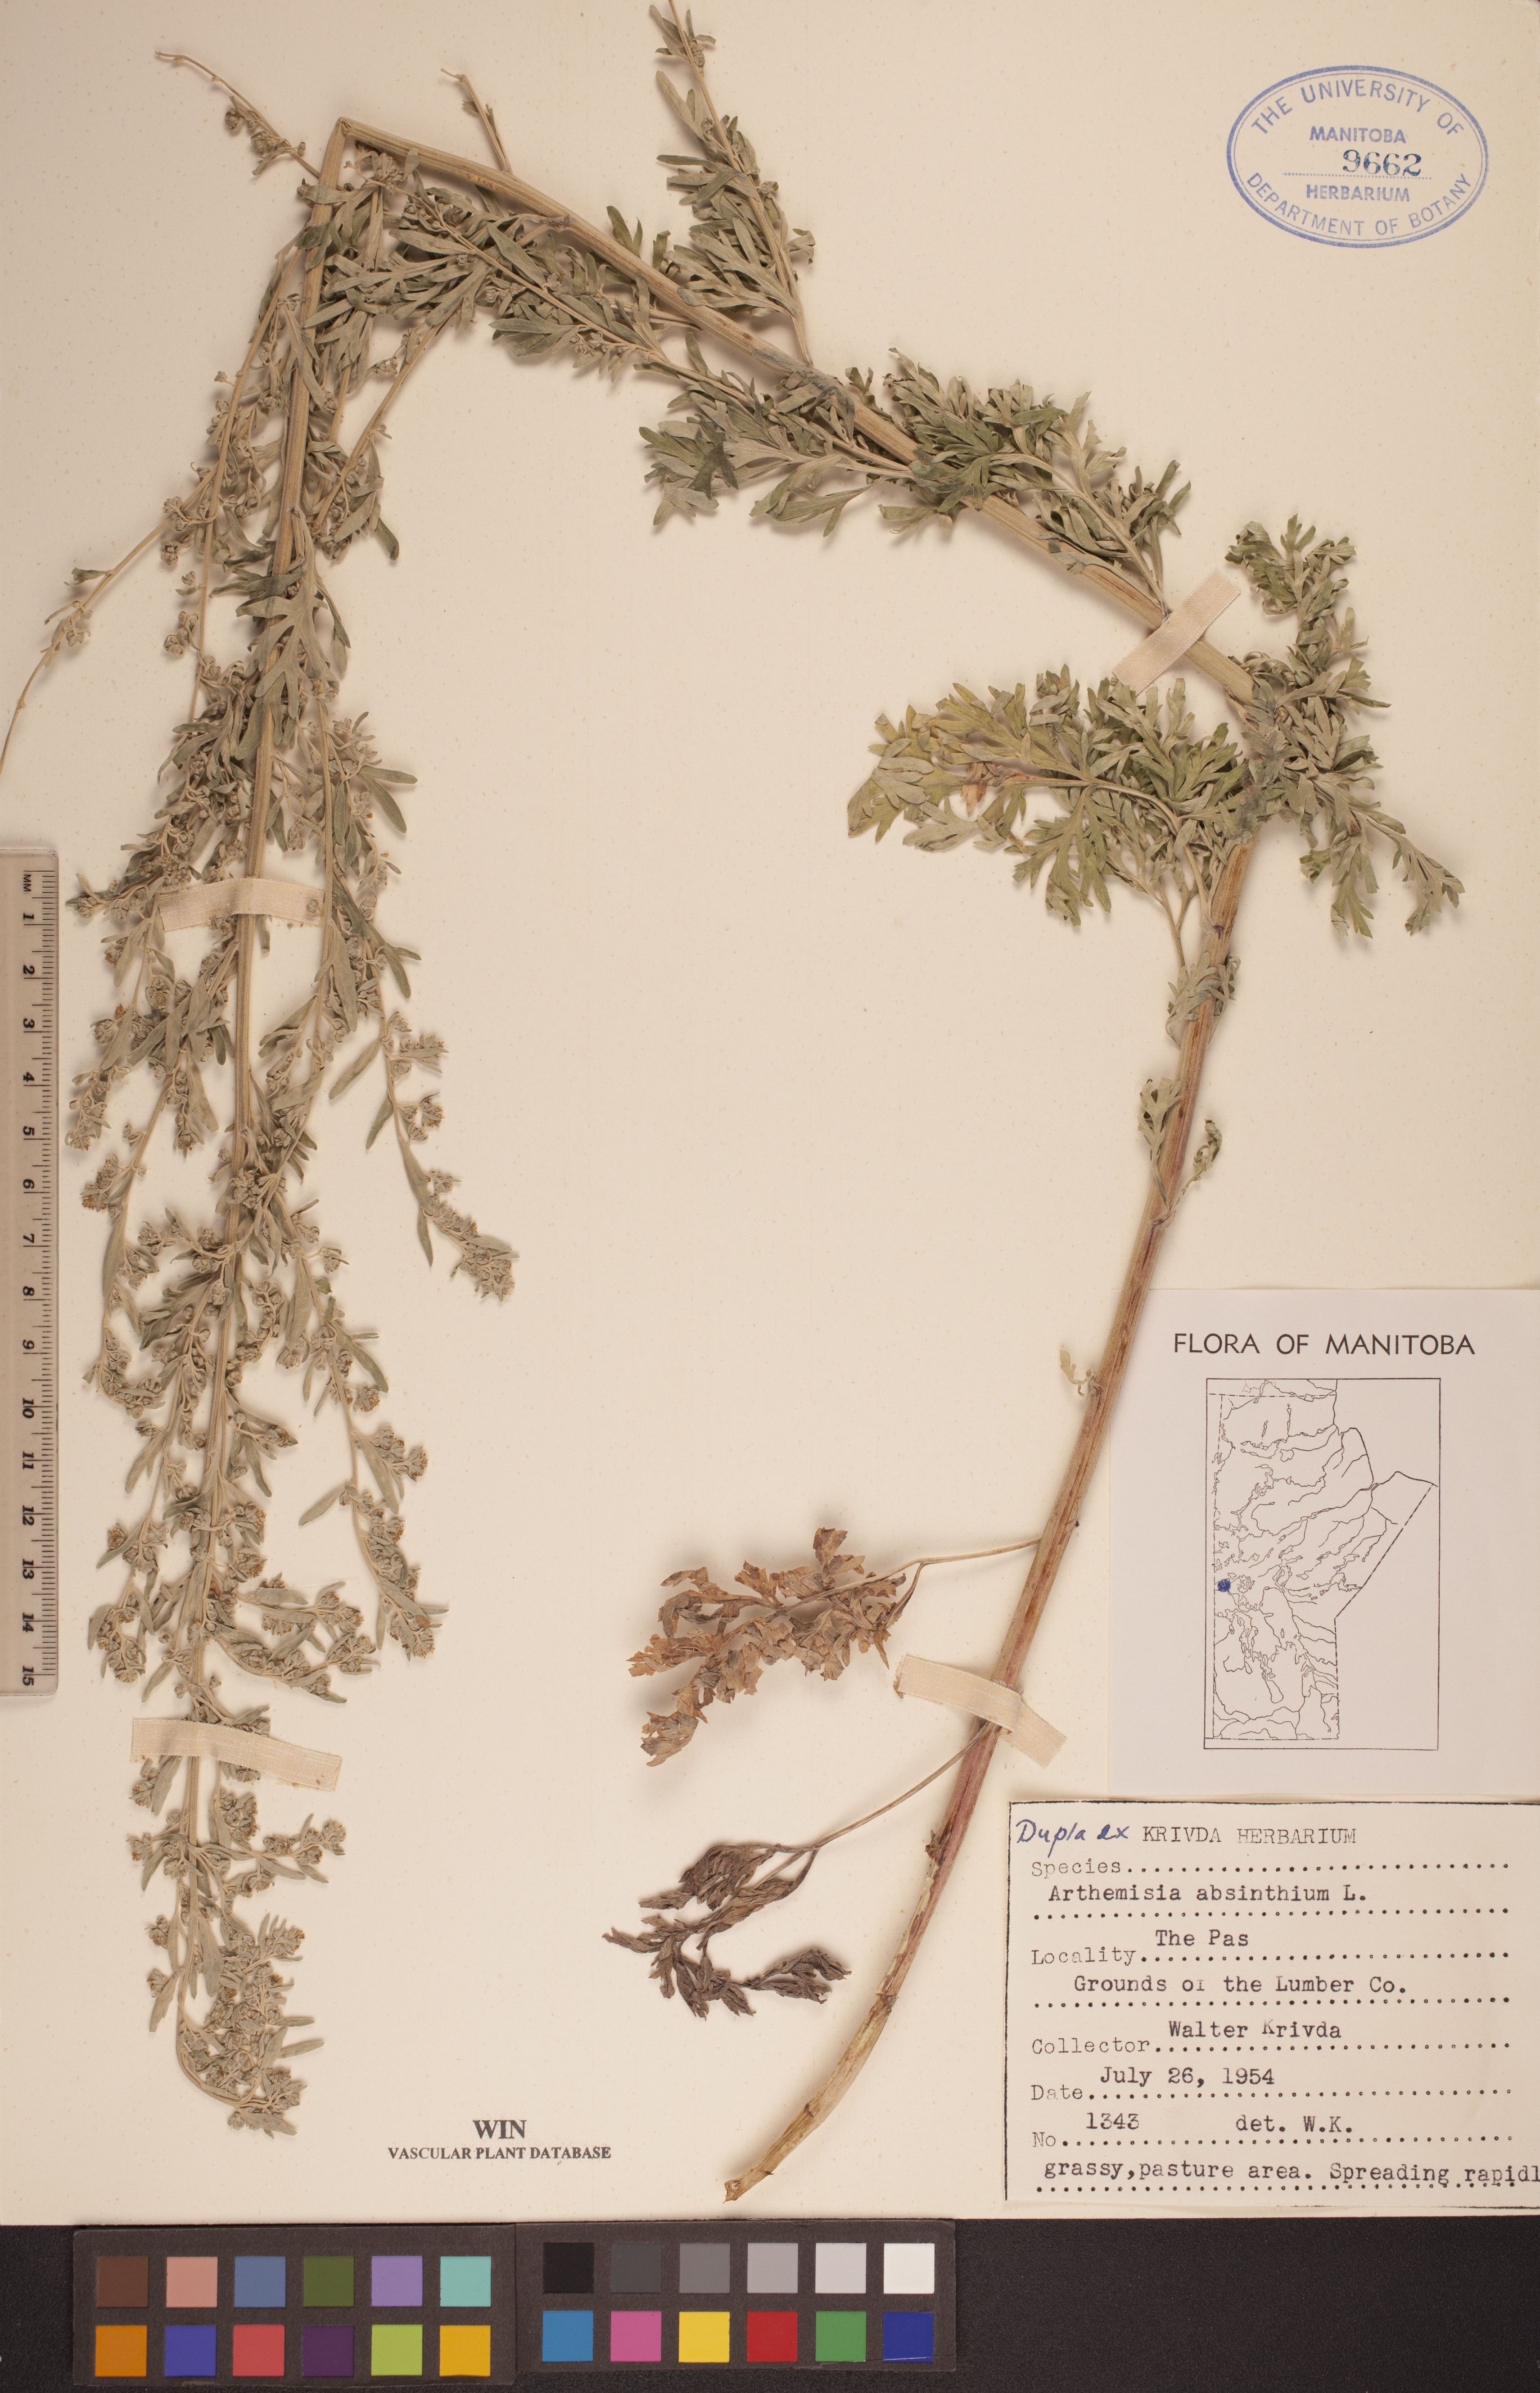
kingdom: Plantae
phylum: Tracheophyta
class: Magnoliopsida
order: Asterales
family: Asteraceae
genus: Artemisia
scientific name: Artemisia absinthium
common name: Wormwood
